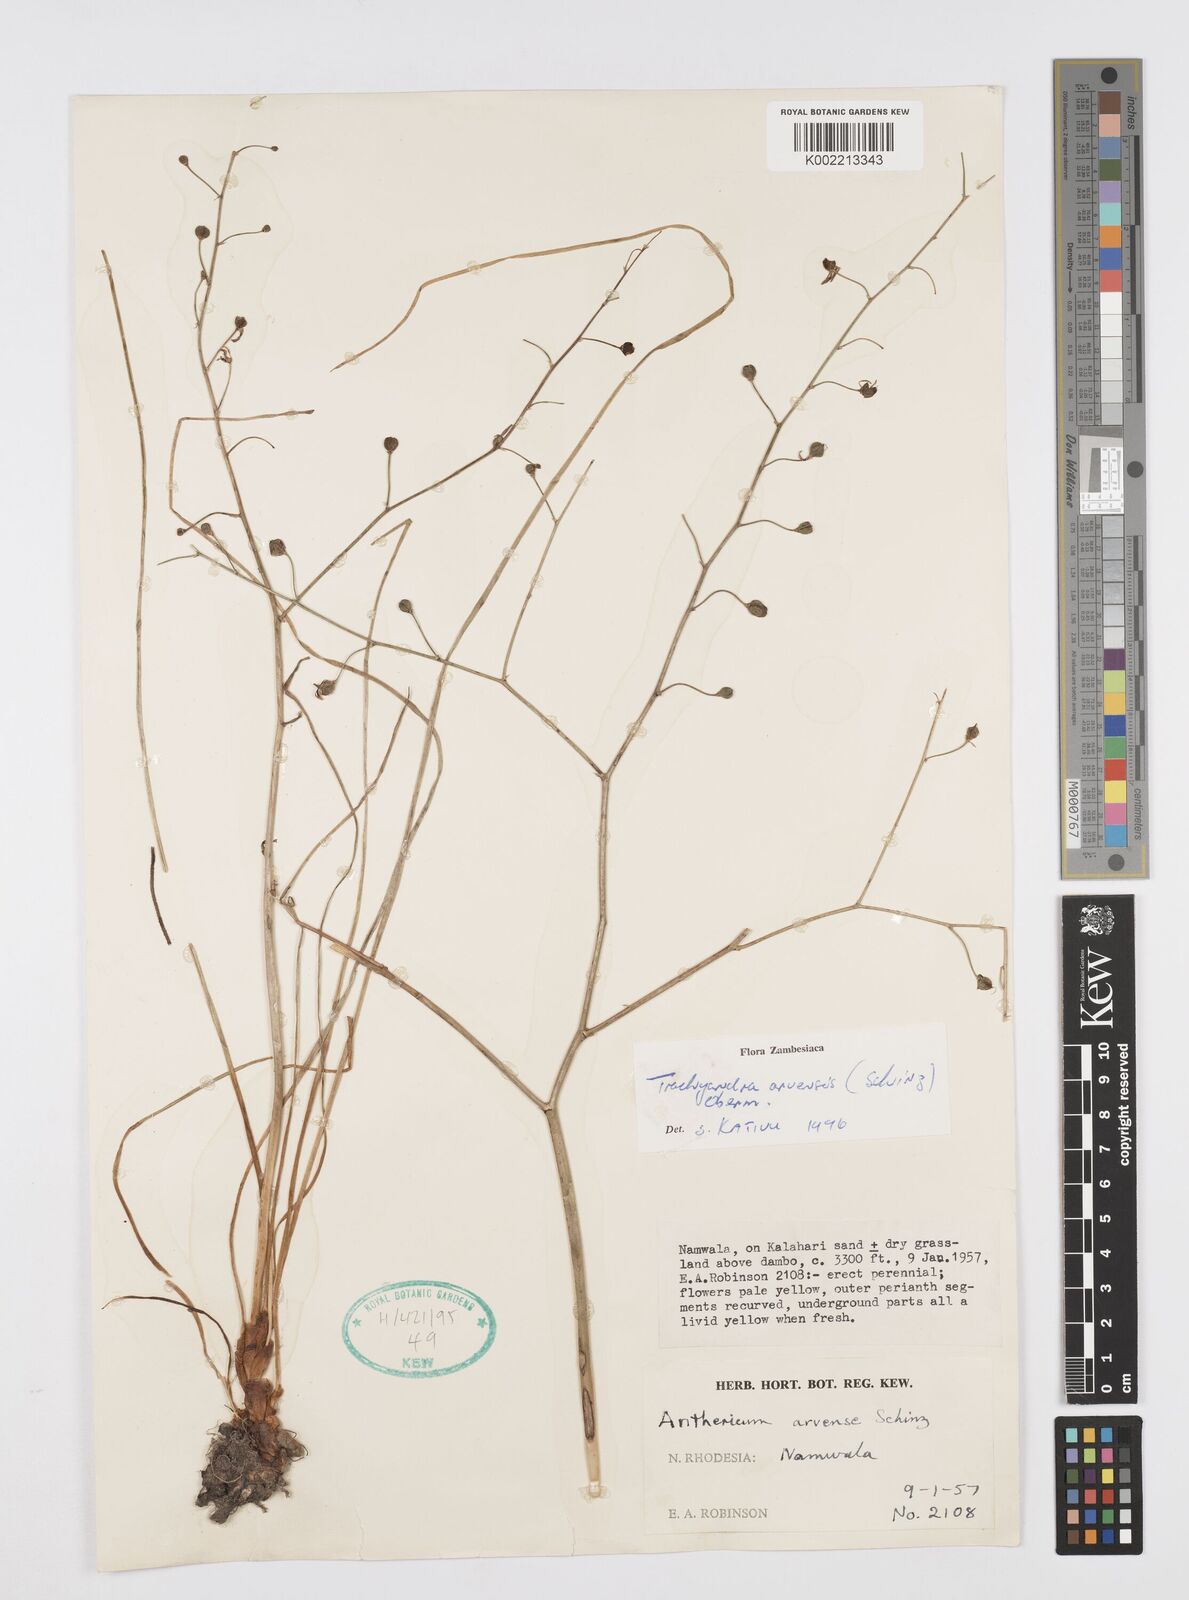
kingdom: Plantae
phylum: Tracheophyta
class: Liliopsida
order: Asparagales
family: Asphodelaceae
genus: Trachyandra
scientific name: Trachyandra arvensis
